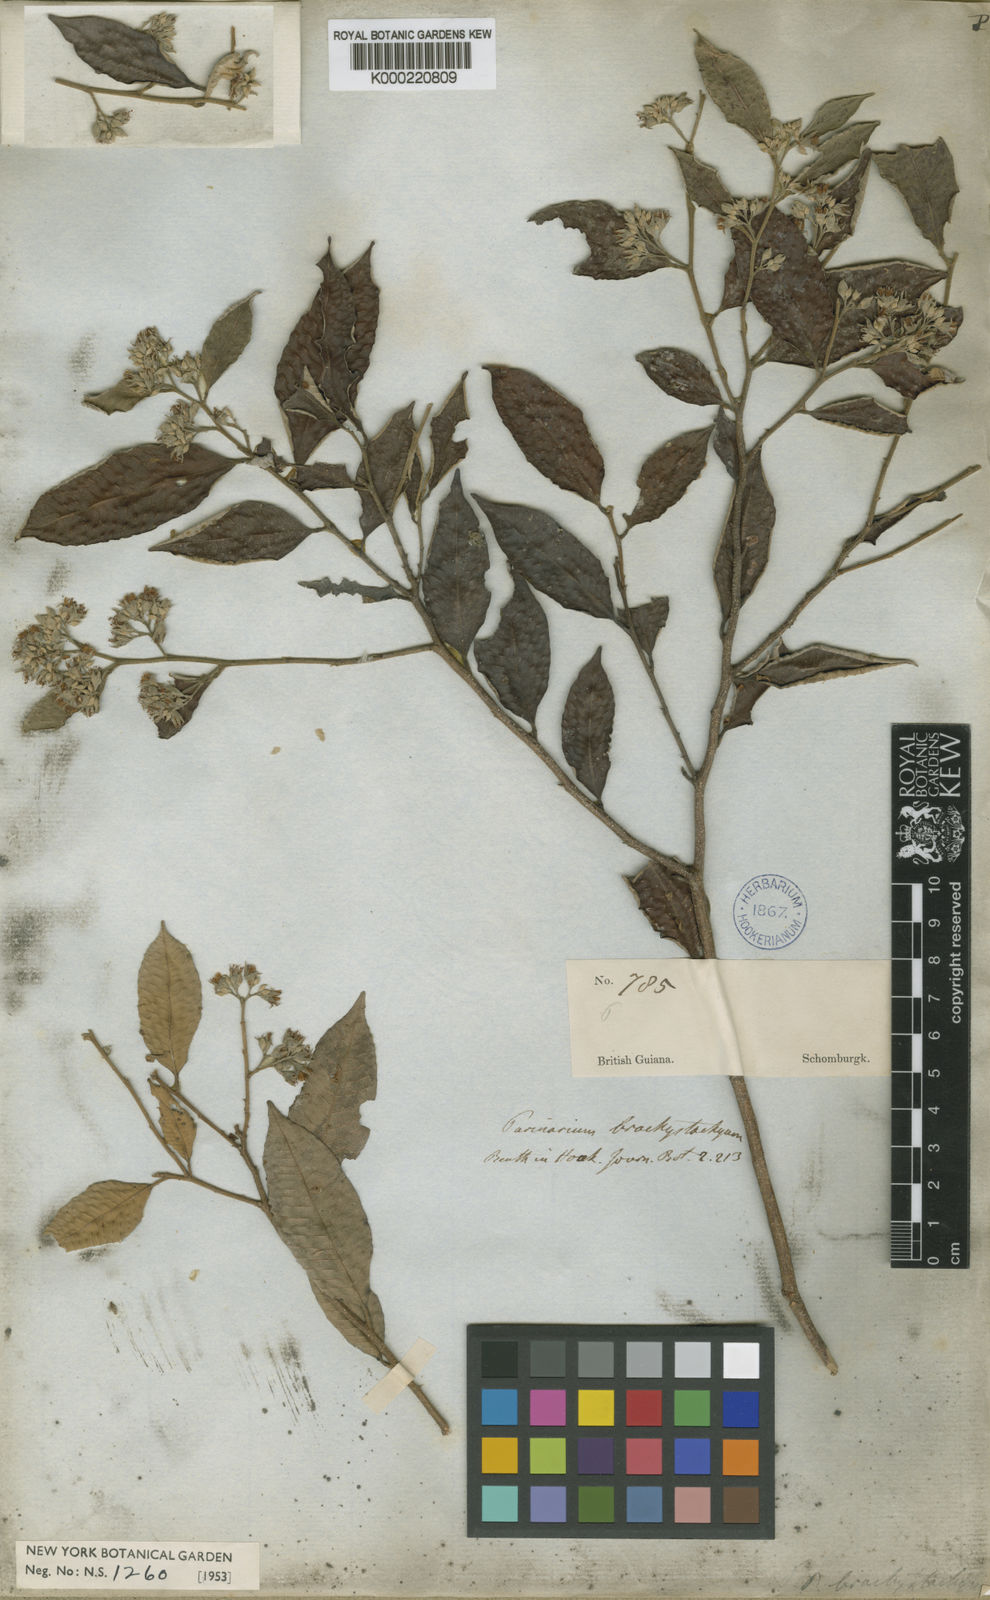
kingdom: Plantae
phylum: Tracheophyta
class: Magnoliopsida
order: Malpighiales
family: Chrysobalanaceae
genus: Parinari
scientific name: Parinari excelsa
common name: Guinea-plum
